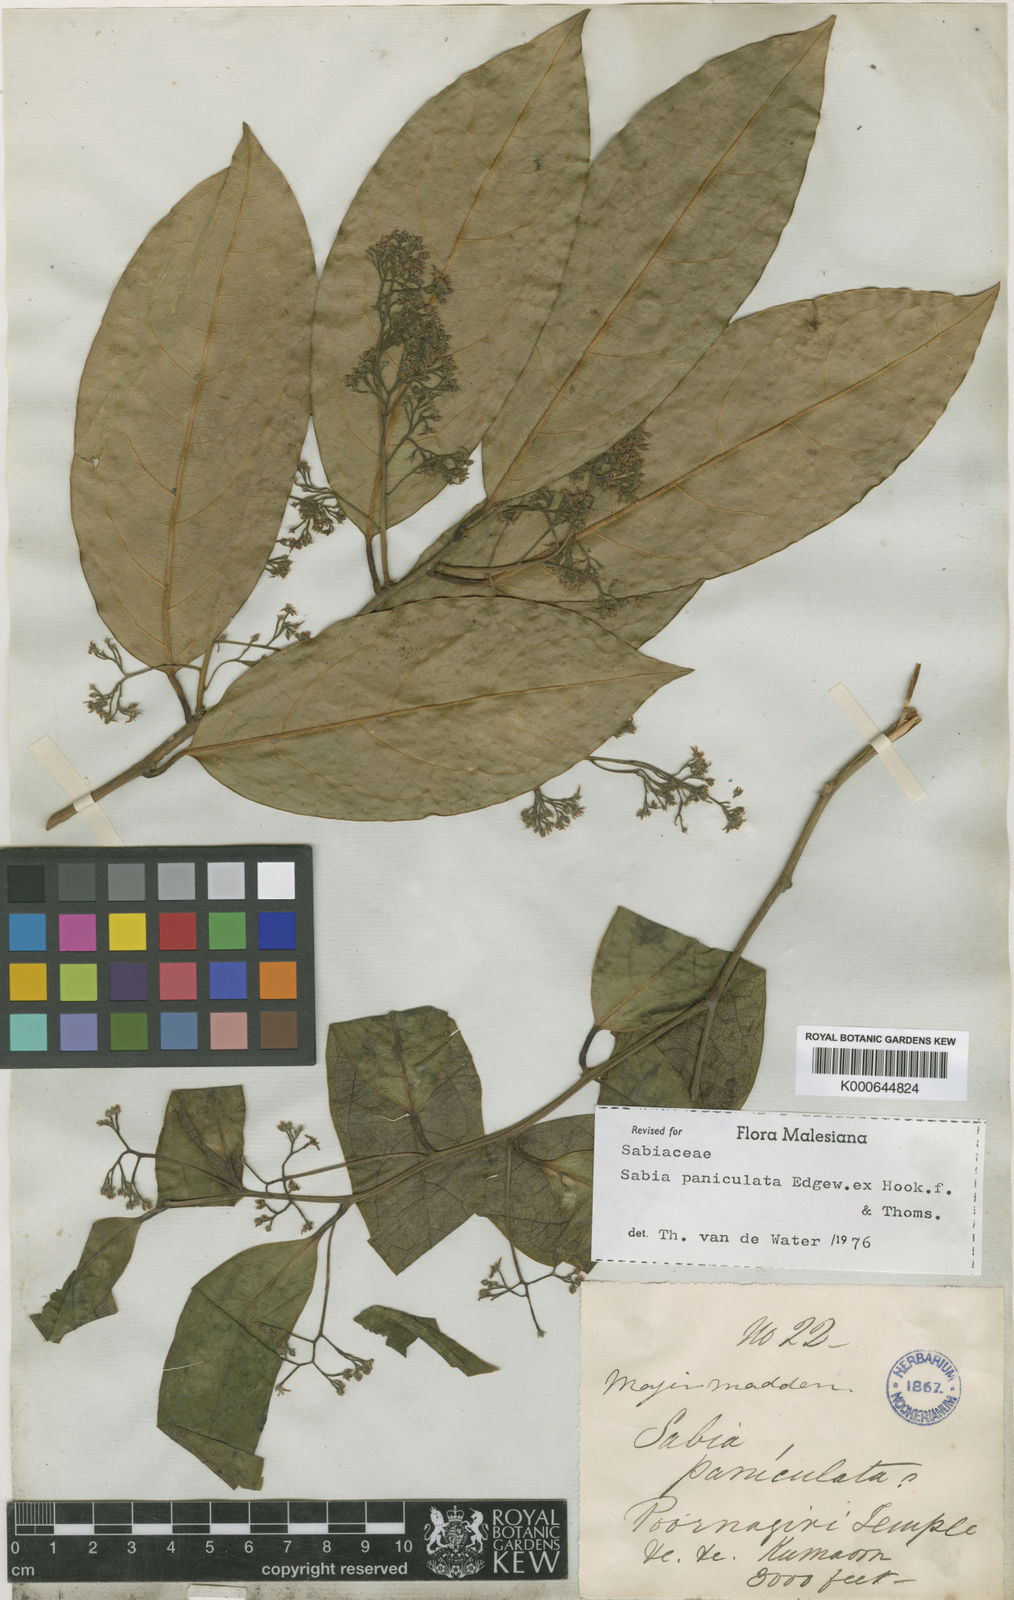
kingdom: Plantae
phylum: Tracheophyta
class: Magnoliopsida
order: Proteales
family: Sabiaceae
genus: Sabia
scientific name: Sabia paniculata
